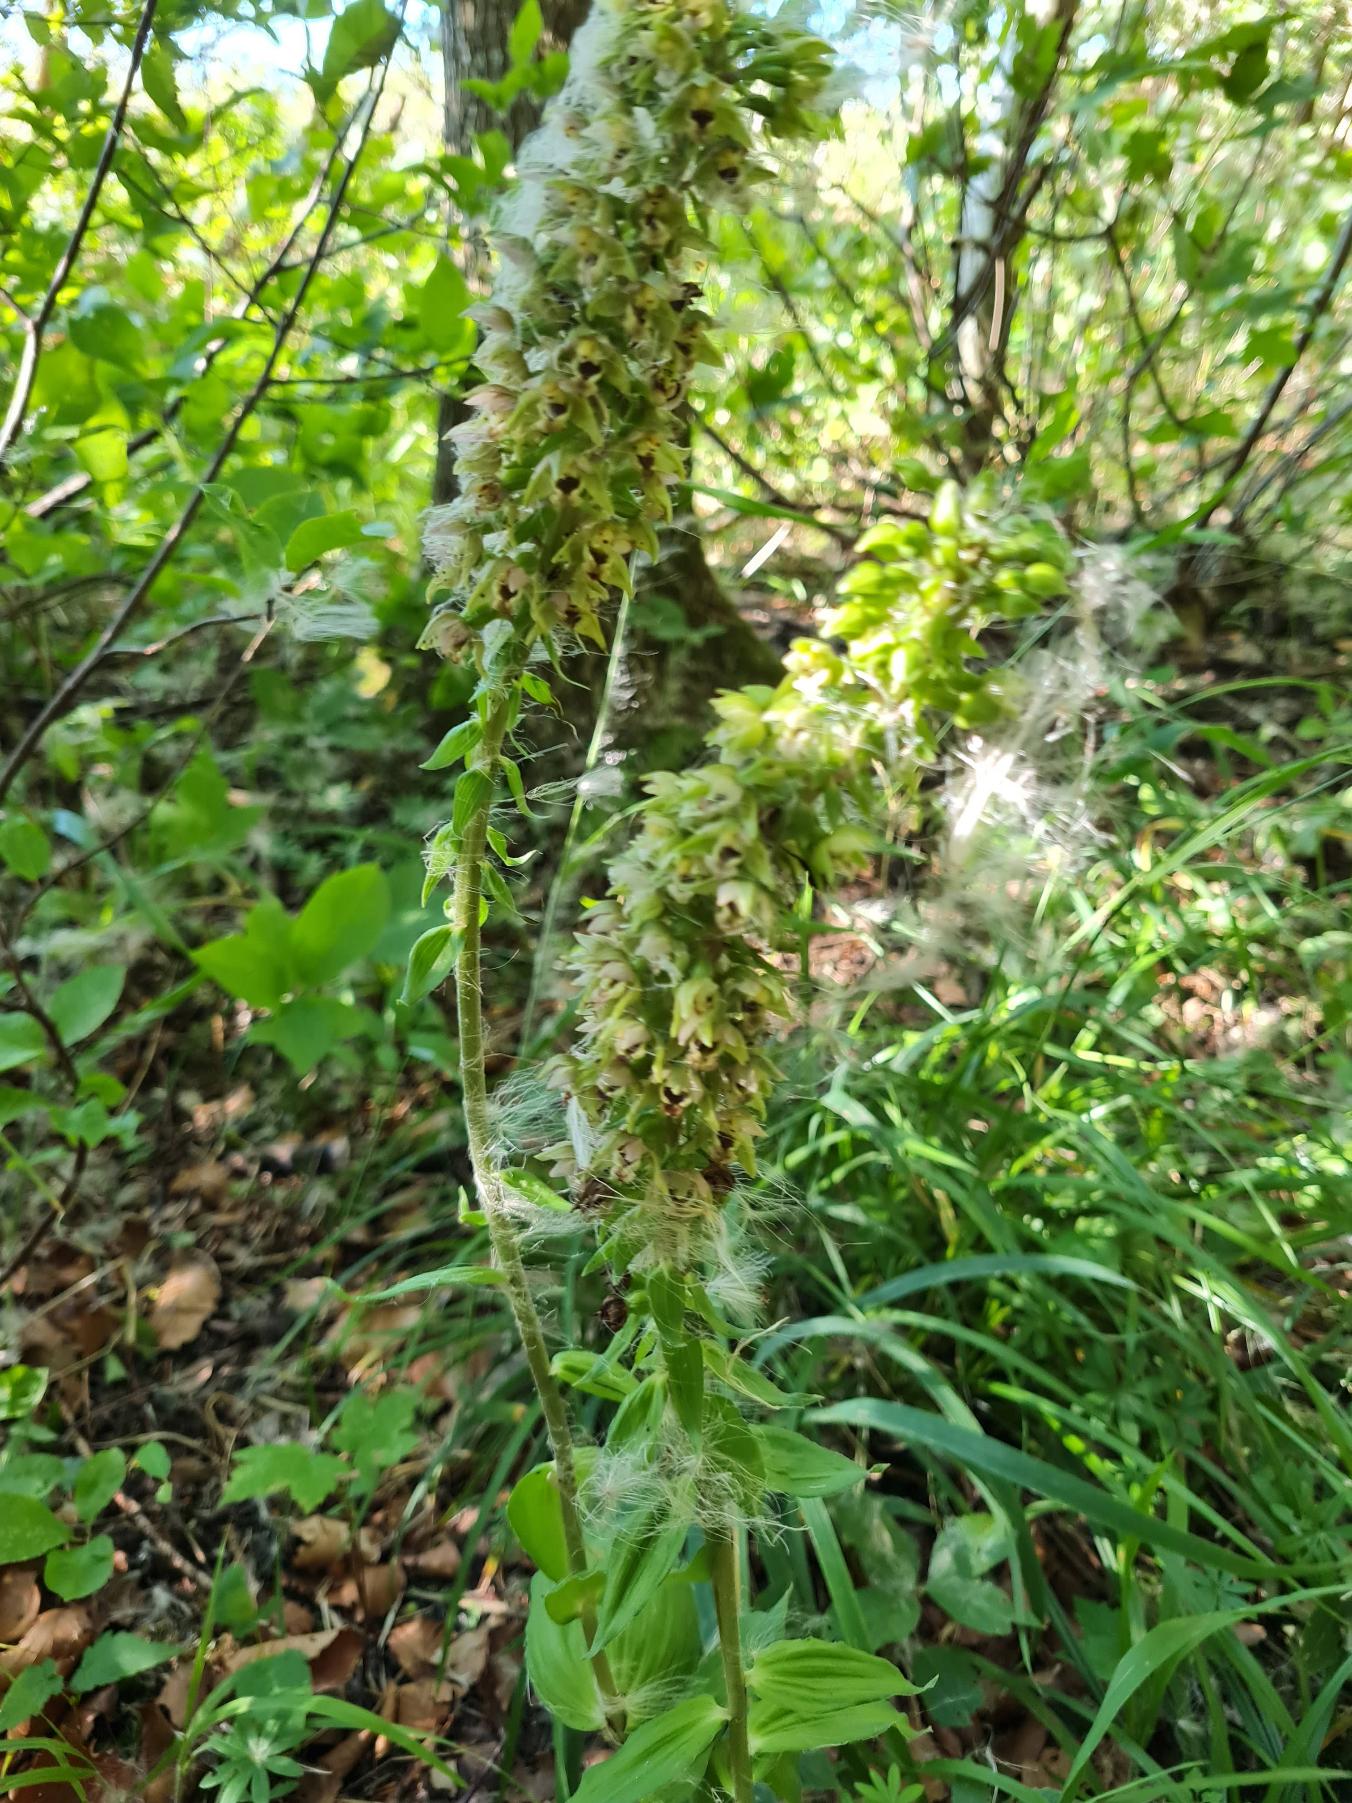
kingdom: Plantae
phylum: Tracheophyta
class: Liliopsida
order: Asparagales
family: Orchidaceae
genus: Epipactis
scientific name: Epipactis helleborine
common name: Skov-hullæbe
